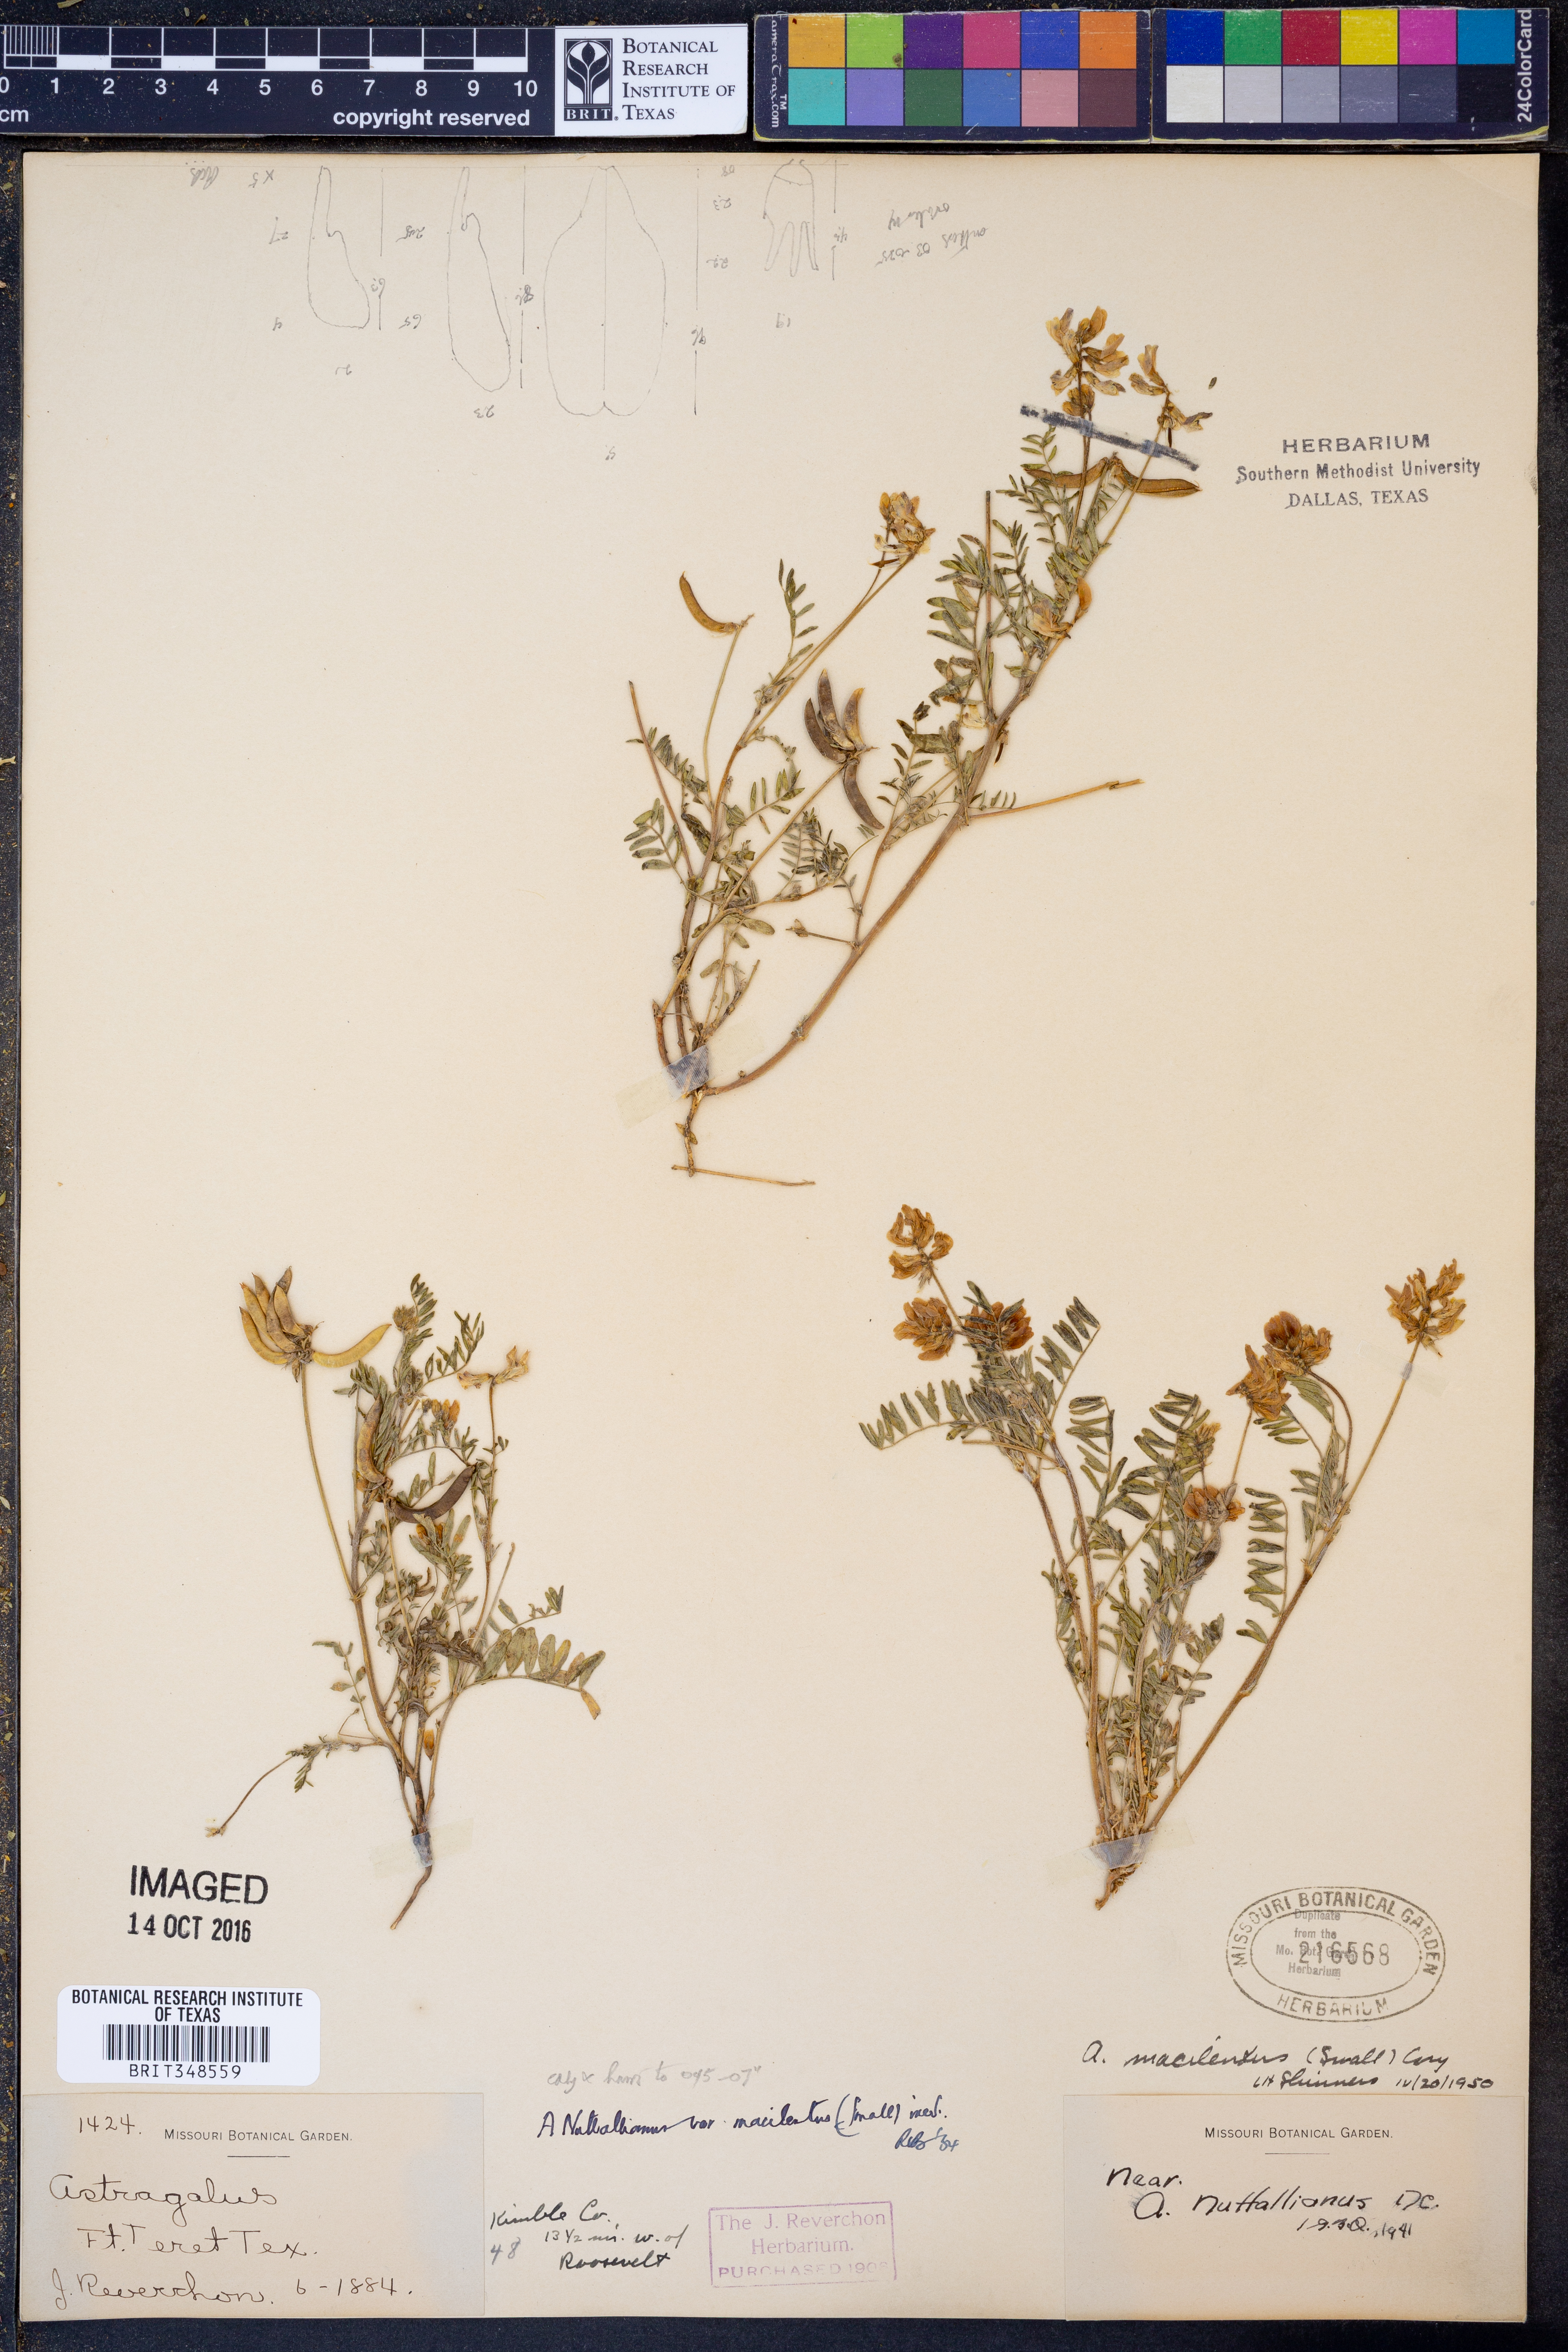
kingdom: Plantae
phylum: Tracheophyta
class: Magnoliopsida
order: Fabales
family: Fabaceae
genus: Astragalus
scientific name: Astragalus nuttallianus
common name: Smallflowered milkvetch
